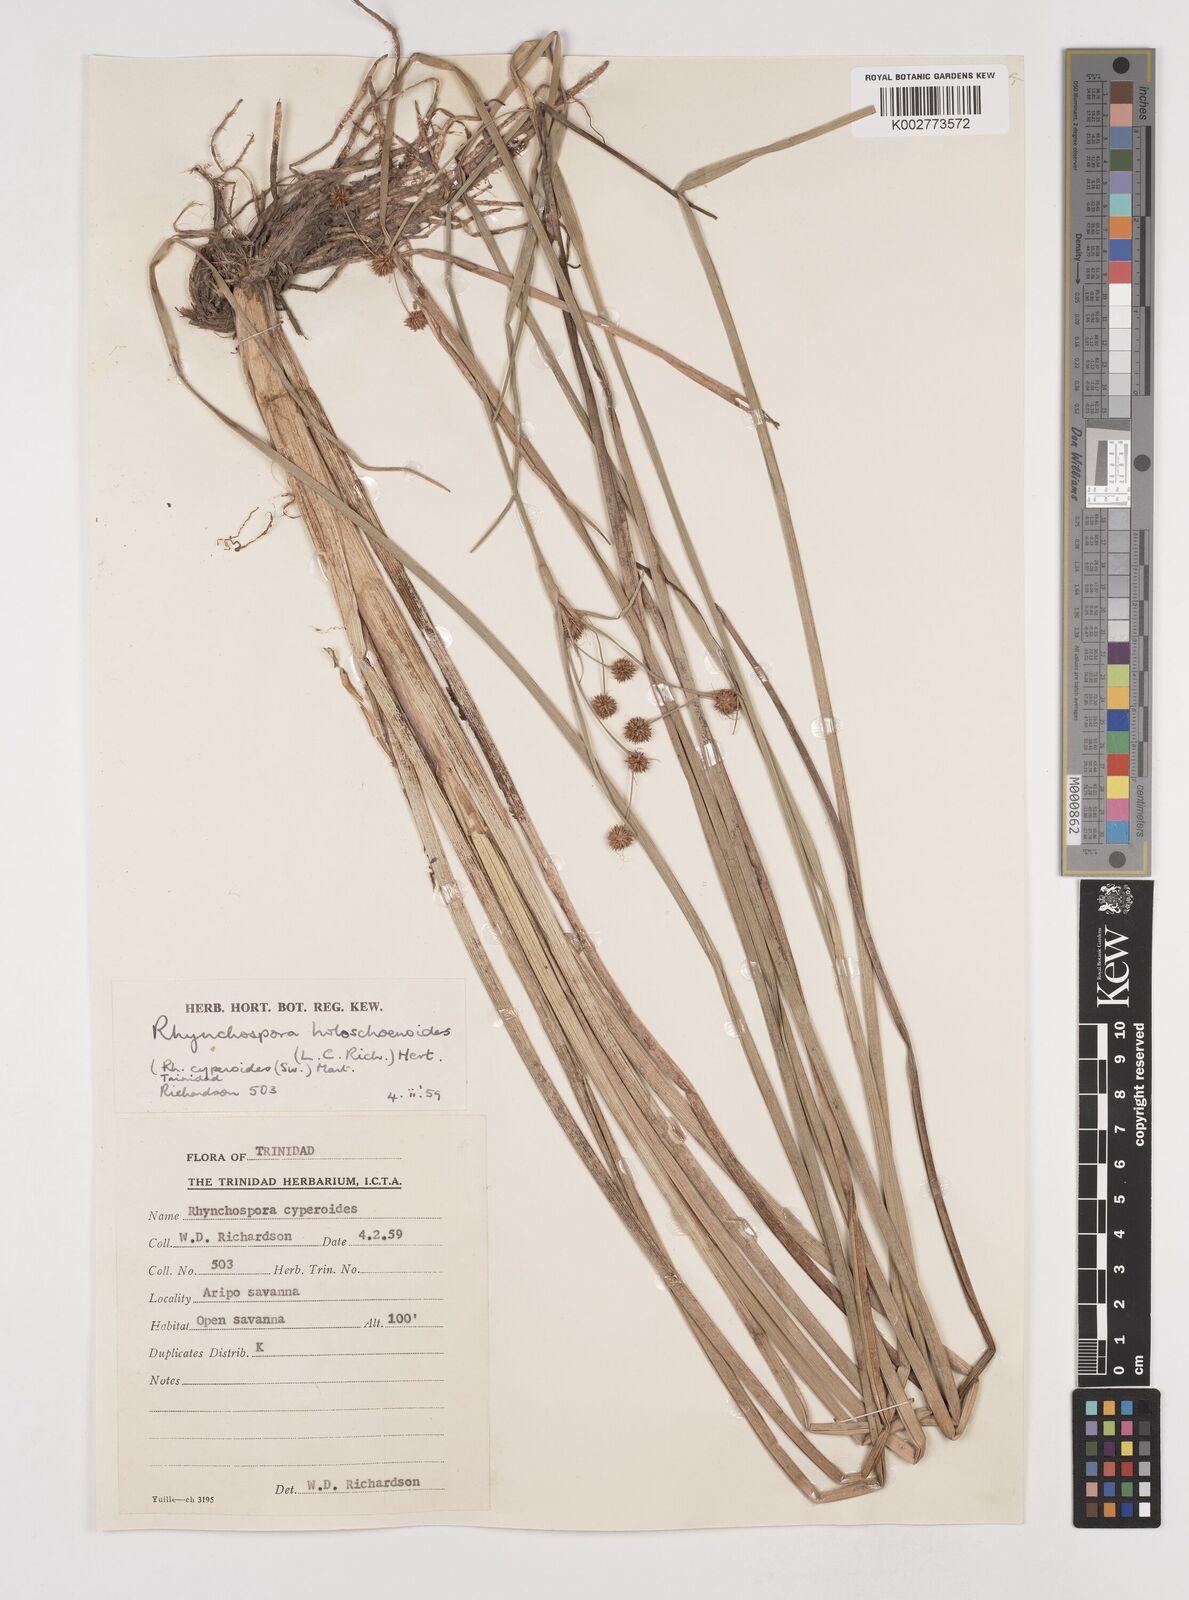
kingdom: Plantae
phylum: Tracheophyta
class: Liliopsida
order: Poales
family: Cyperaceae
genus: Rhynchospora
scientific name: Rhynchospora holoschoenoides
